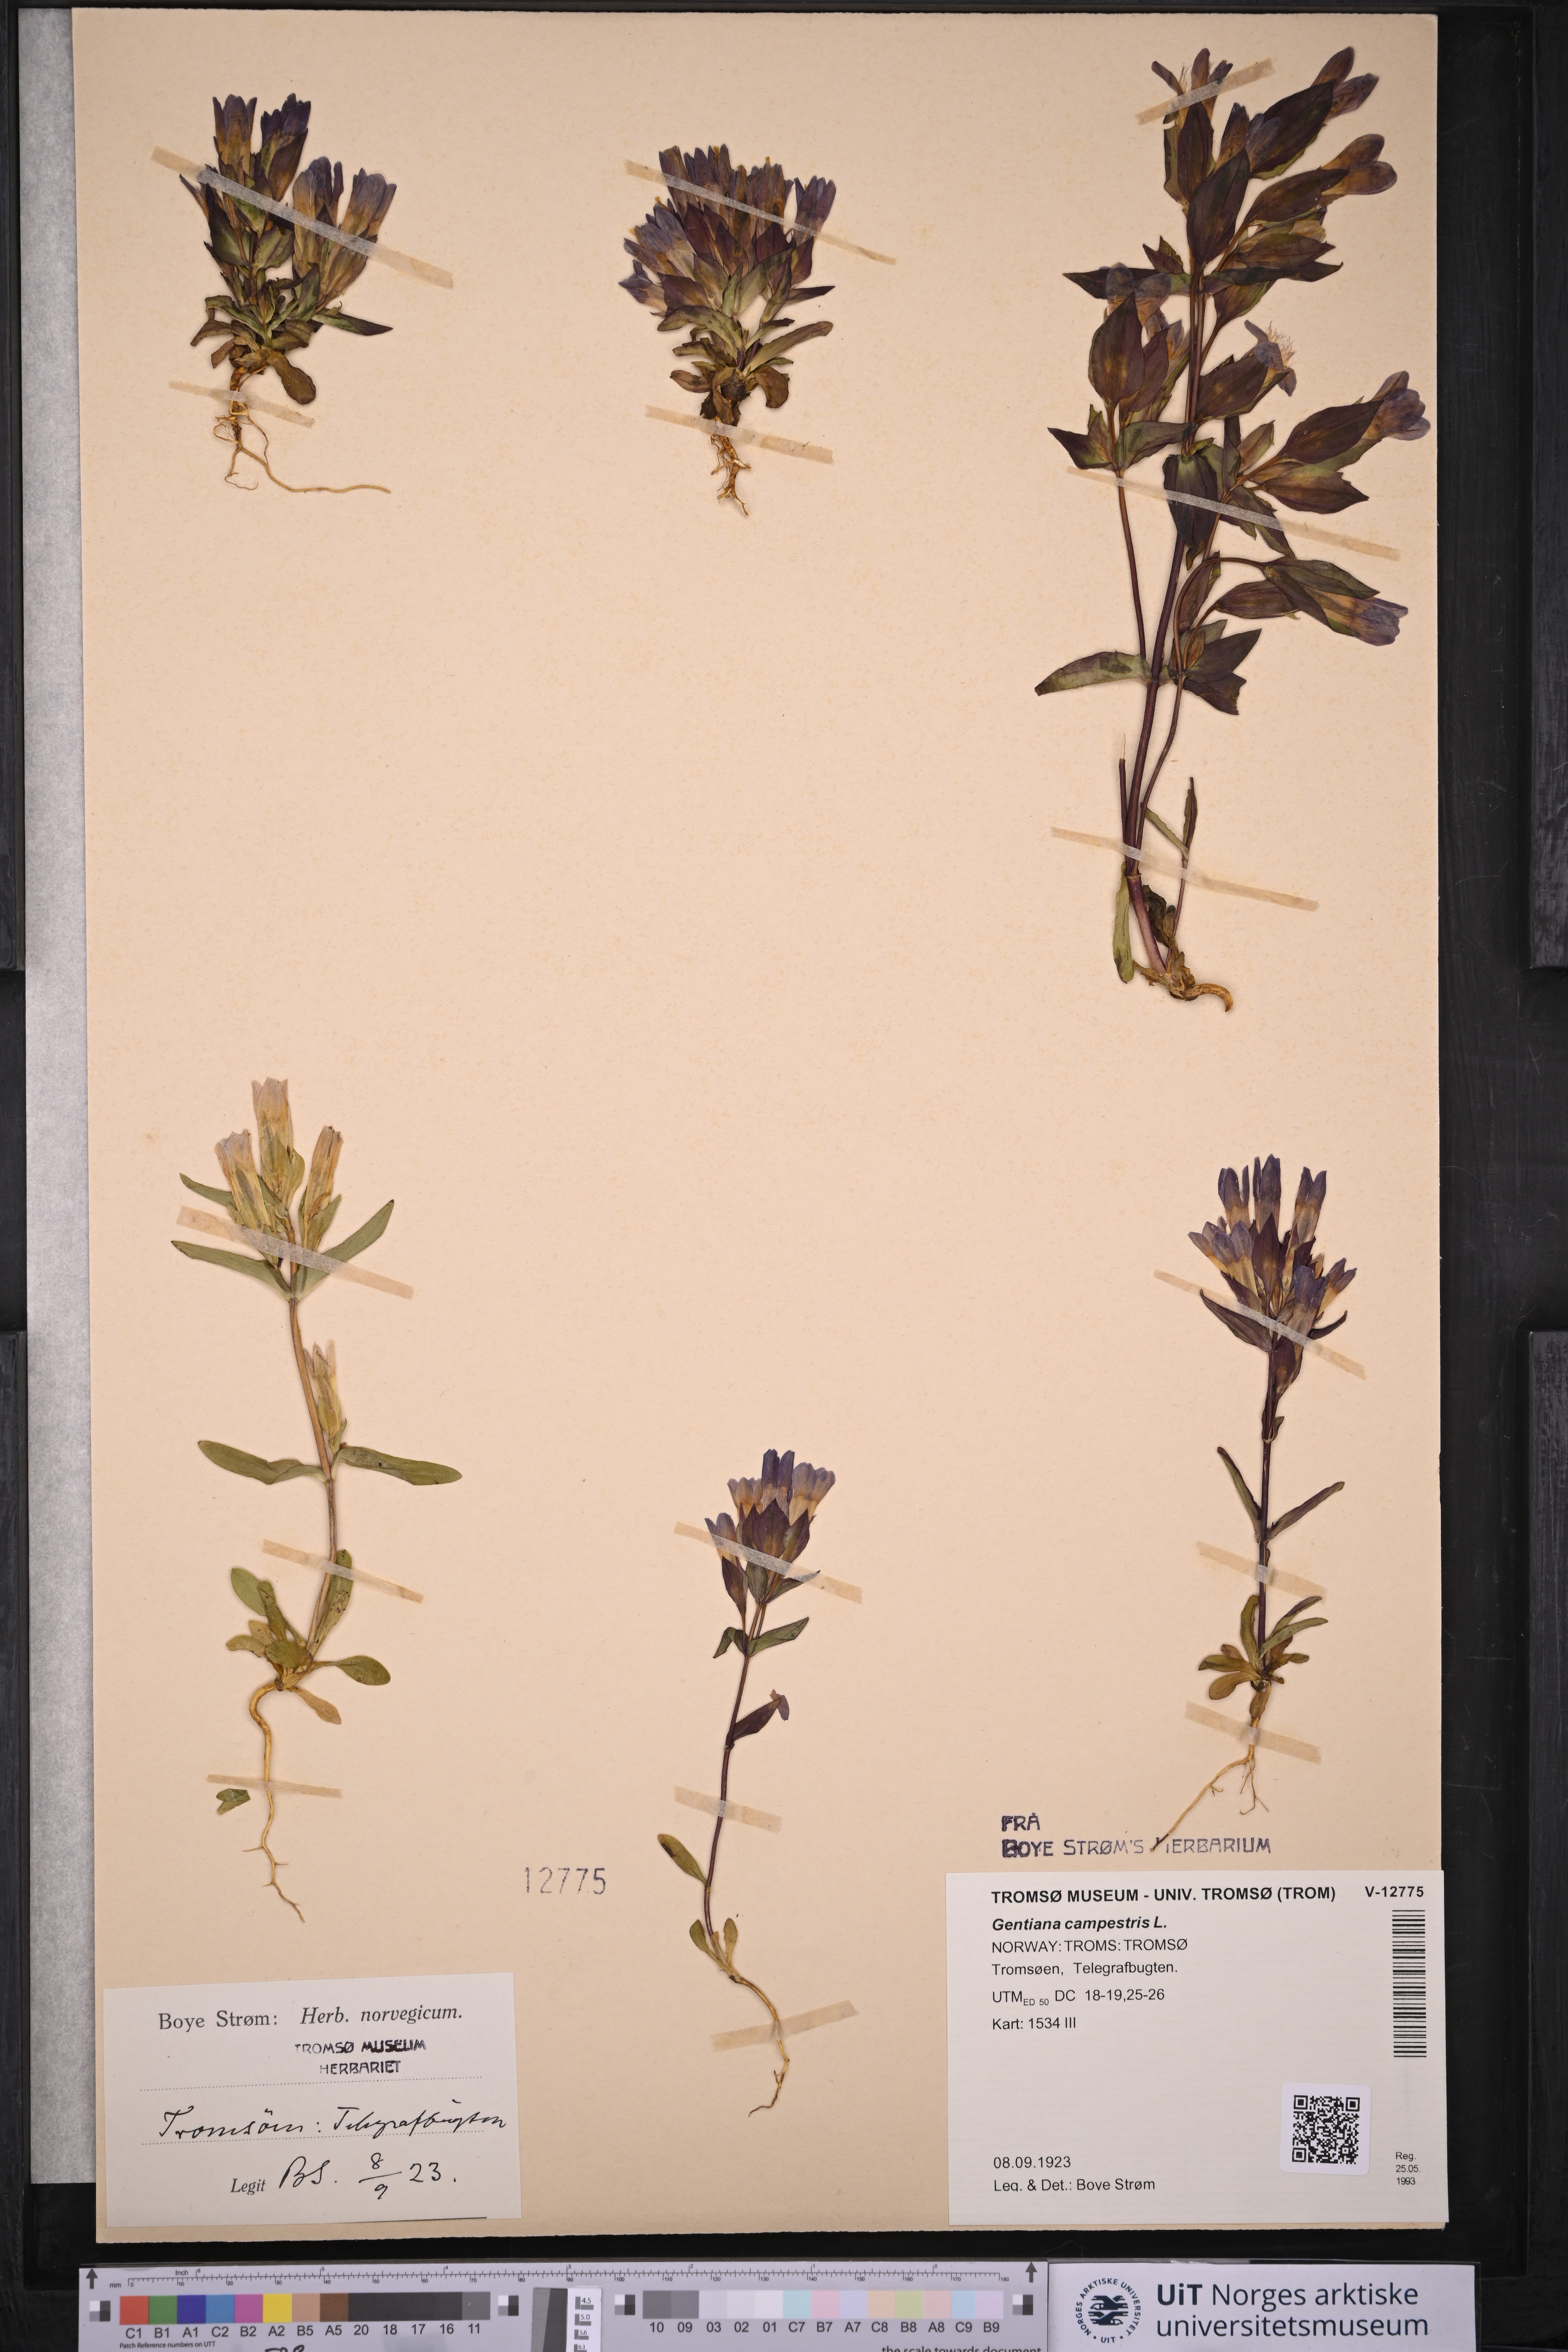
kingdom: Plantae
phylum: Tracheophyta
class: Magnoliopsida
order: Gentianales
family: Gentianaceae
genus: Gentianella
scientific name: Gentianella campestris
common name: Field gentian
